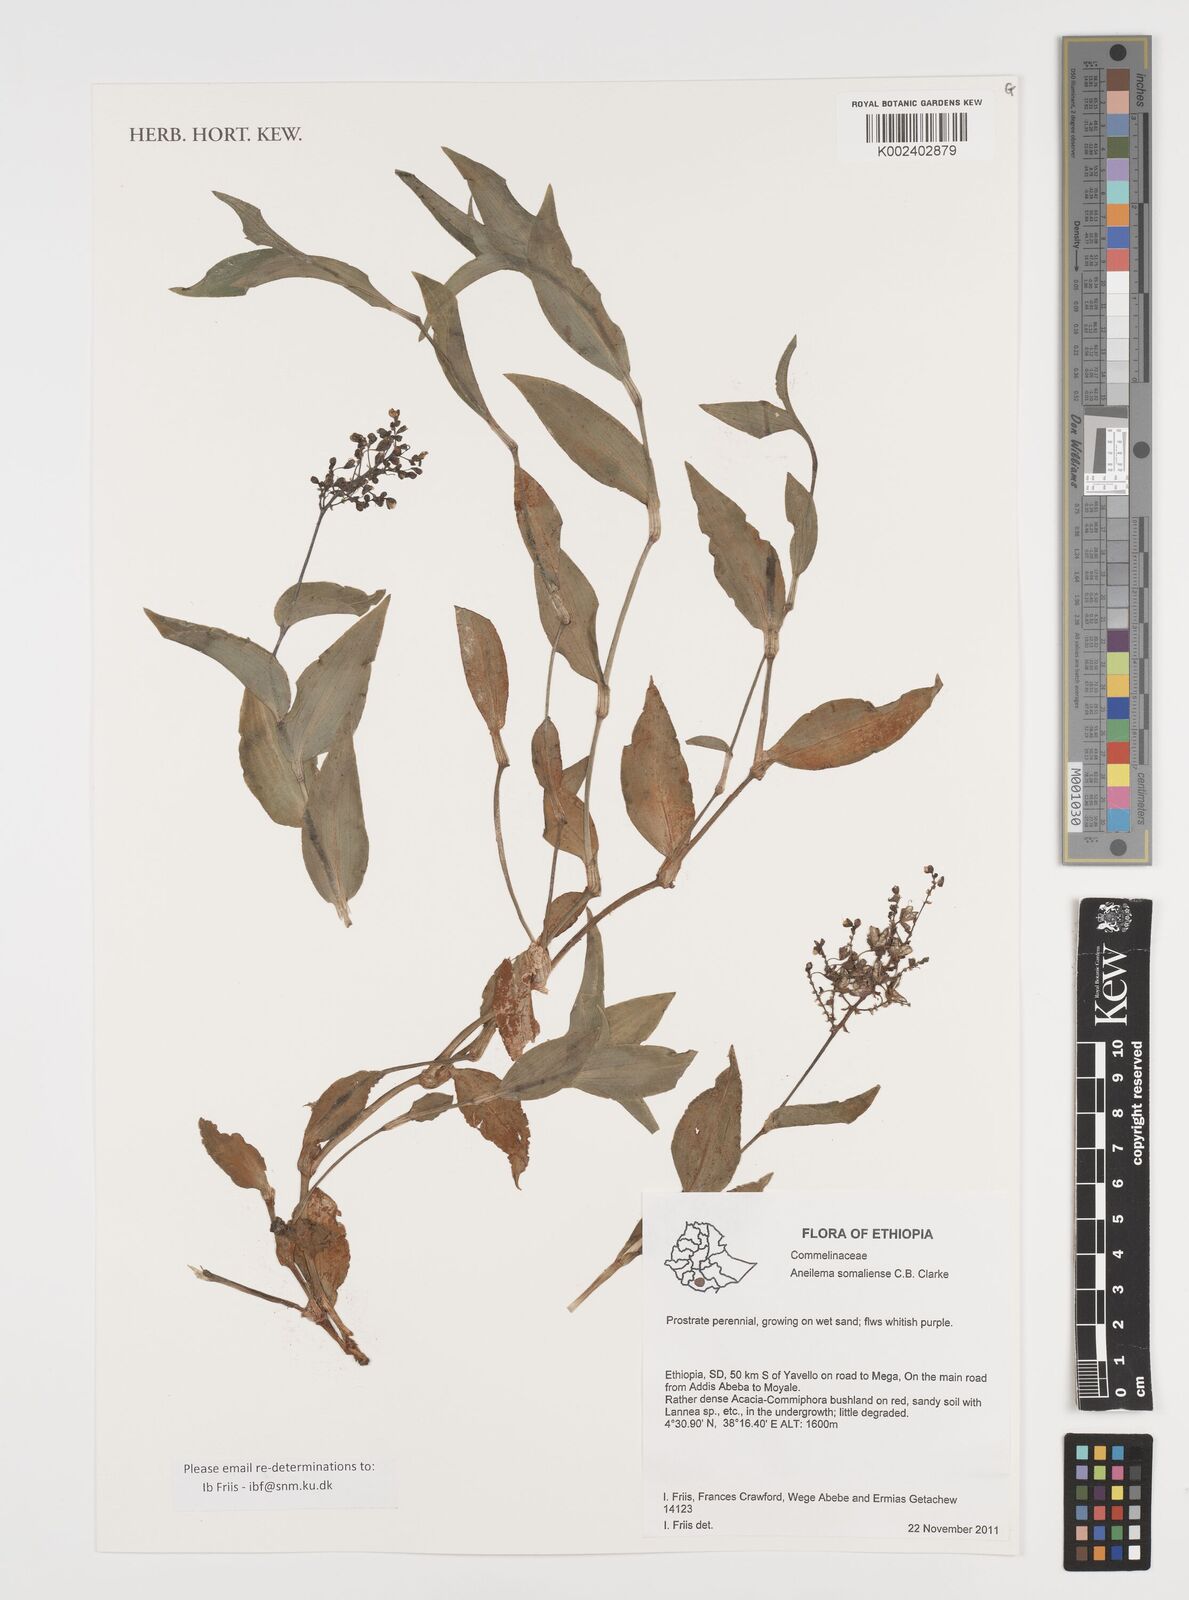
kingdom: Plantae
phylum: Tracheophyta
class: Liliopsida
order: Commelinales
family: Commelinaceae
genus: Aneilema
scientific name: Aneilema somaliense
